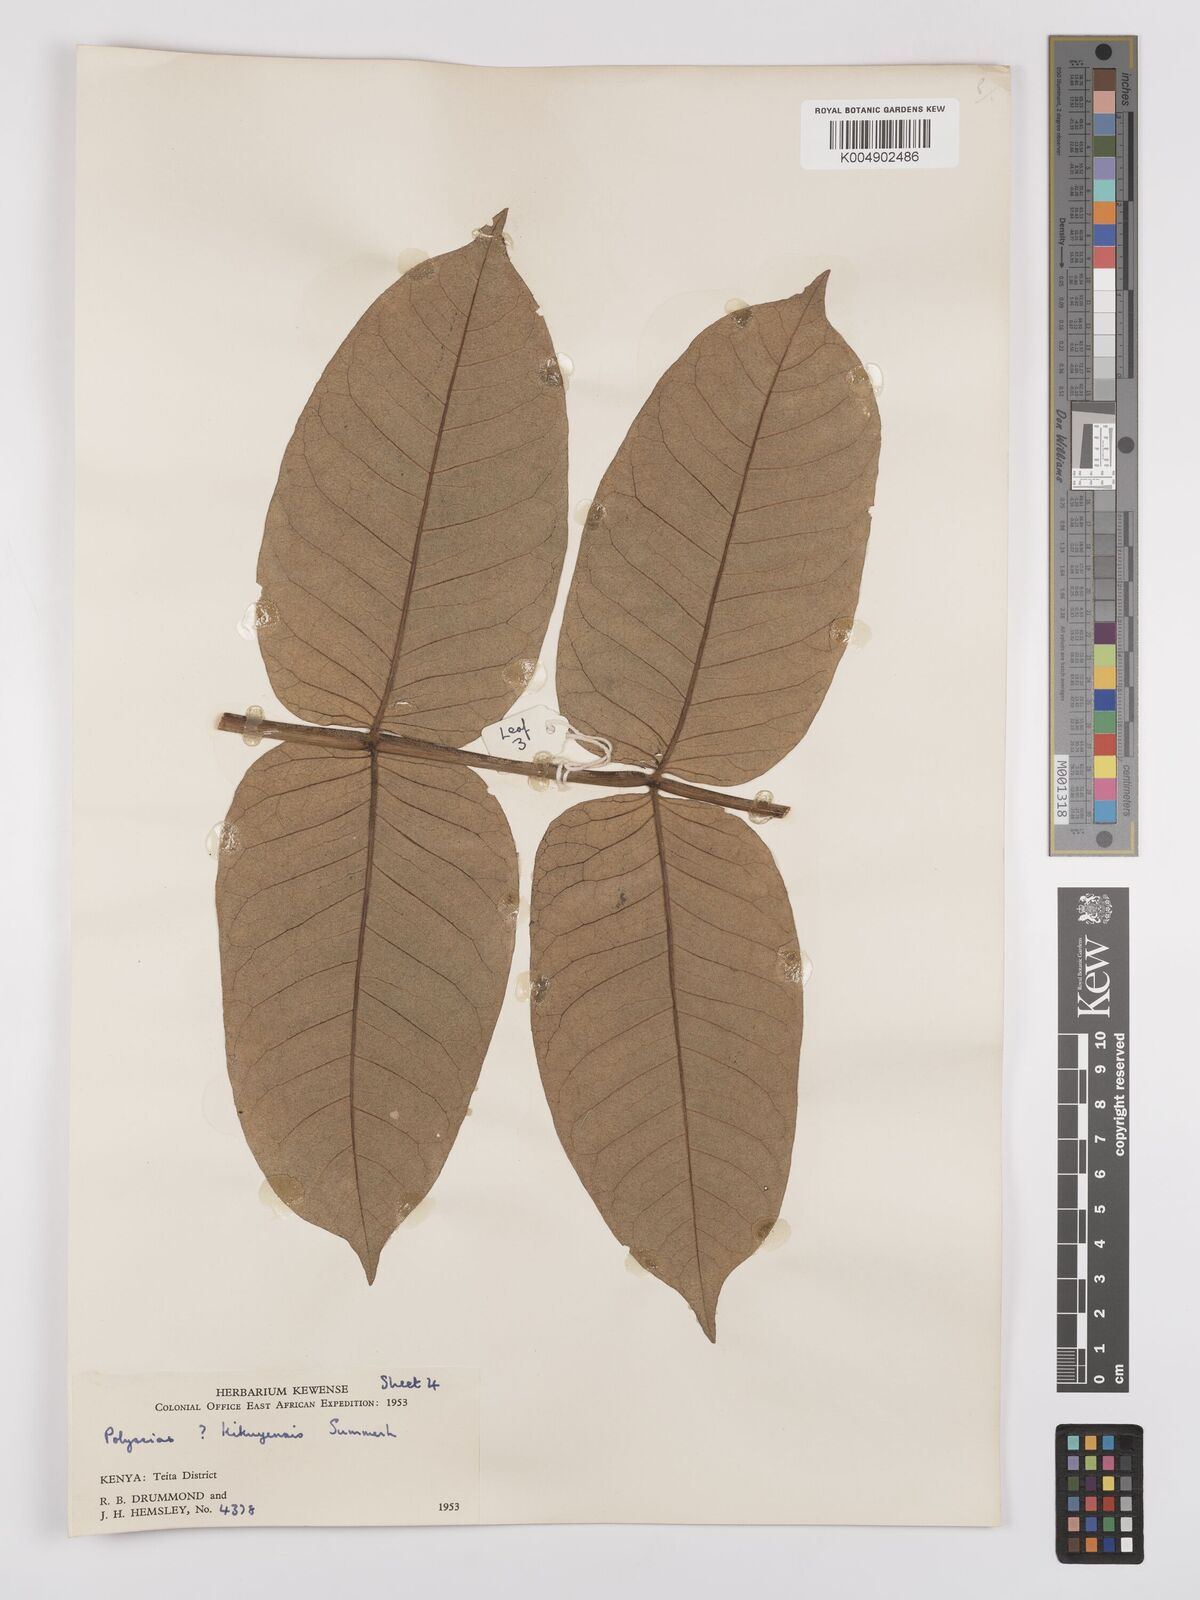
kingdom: Plantae
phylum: Tracheophyta
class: Magnoliopsida
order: Apiales
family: Araliaceae
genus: Polyscias
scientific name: Polyscias fulva
